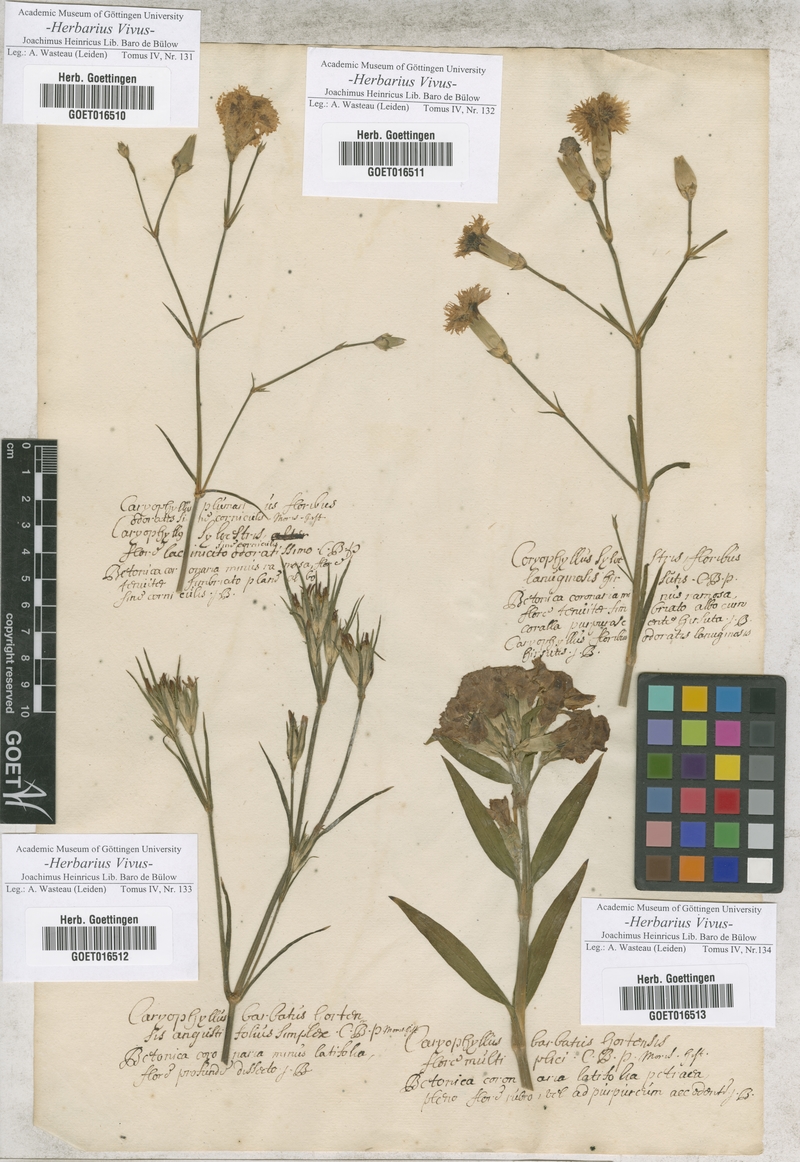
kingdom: Plantae
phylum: Tracheophyta
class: Magnoliopsida
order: Caryophyllales
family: Caryophyllaceae
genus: Dianthus
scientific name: Dianthus plumarius
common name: Pink
